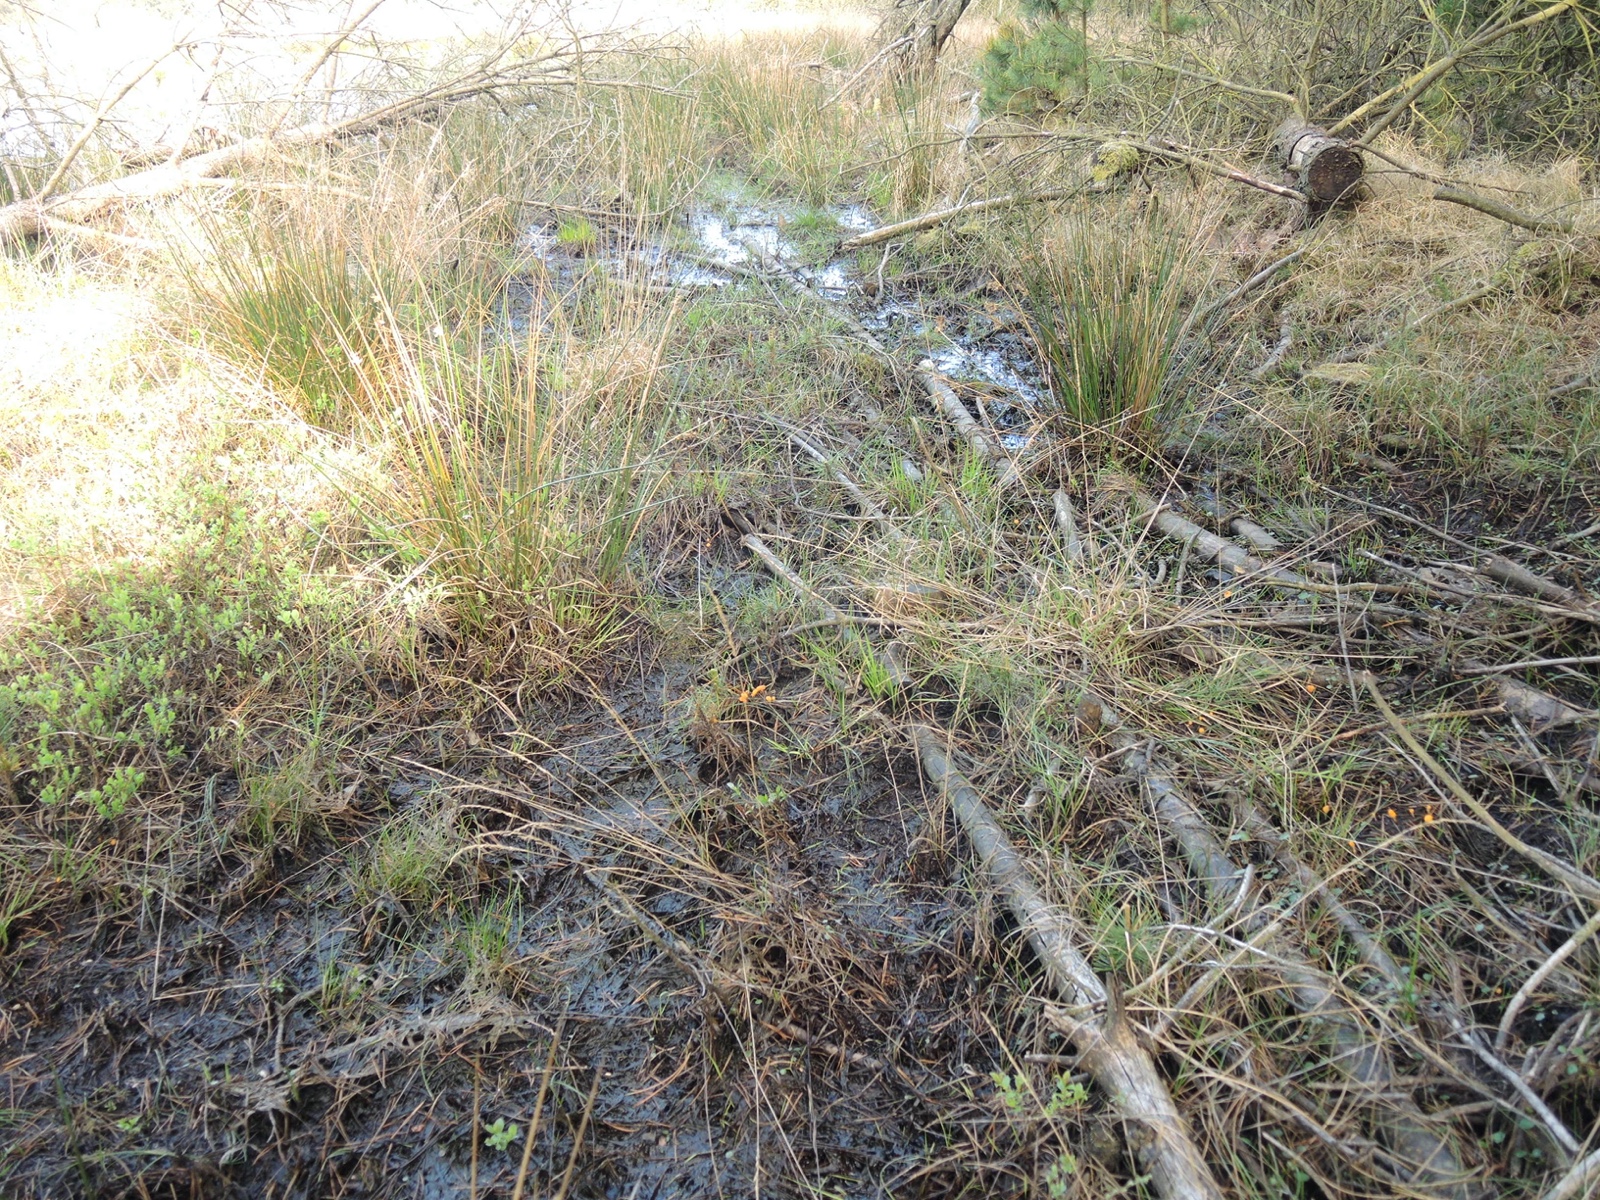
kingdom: Fungi
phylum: Ascomycota
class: Leotiomycetes
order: Helotiales
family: Cenangiaceae
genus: Mitrula
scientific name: Mitrula paludosa
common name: gul nøkketunge
